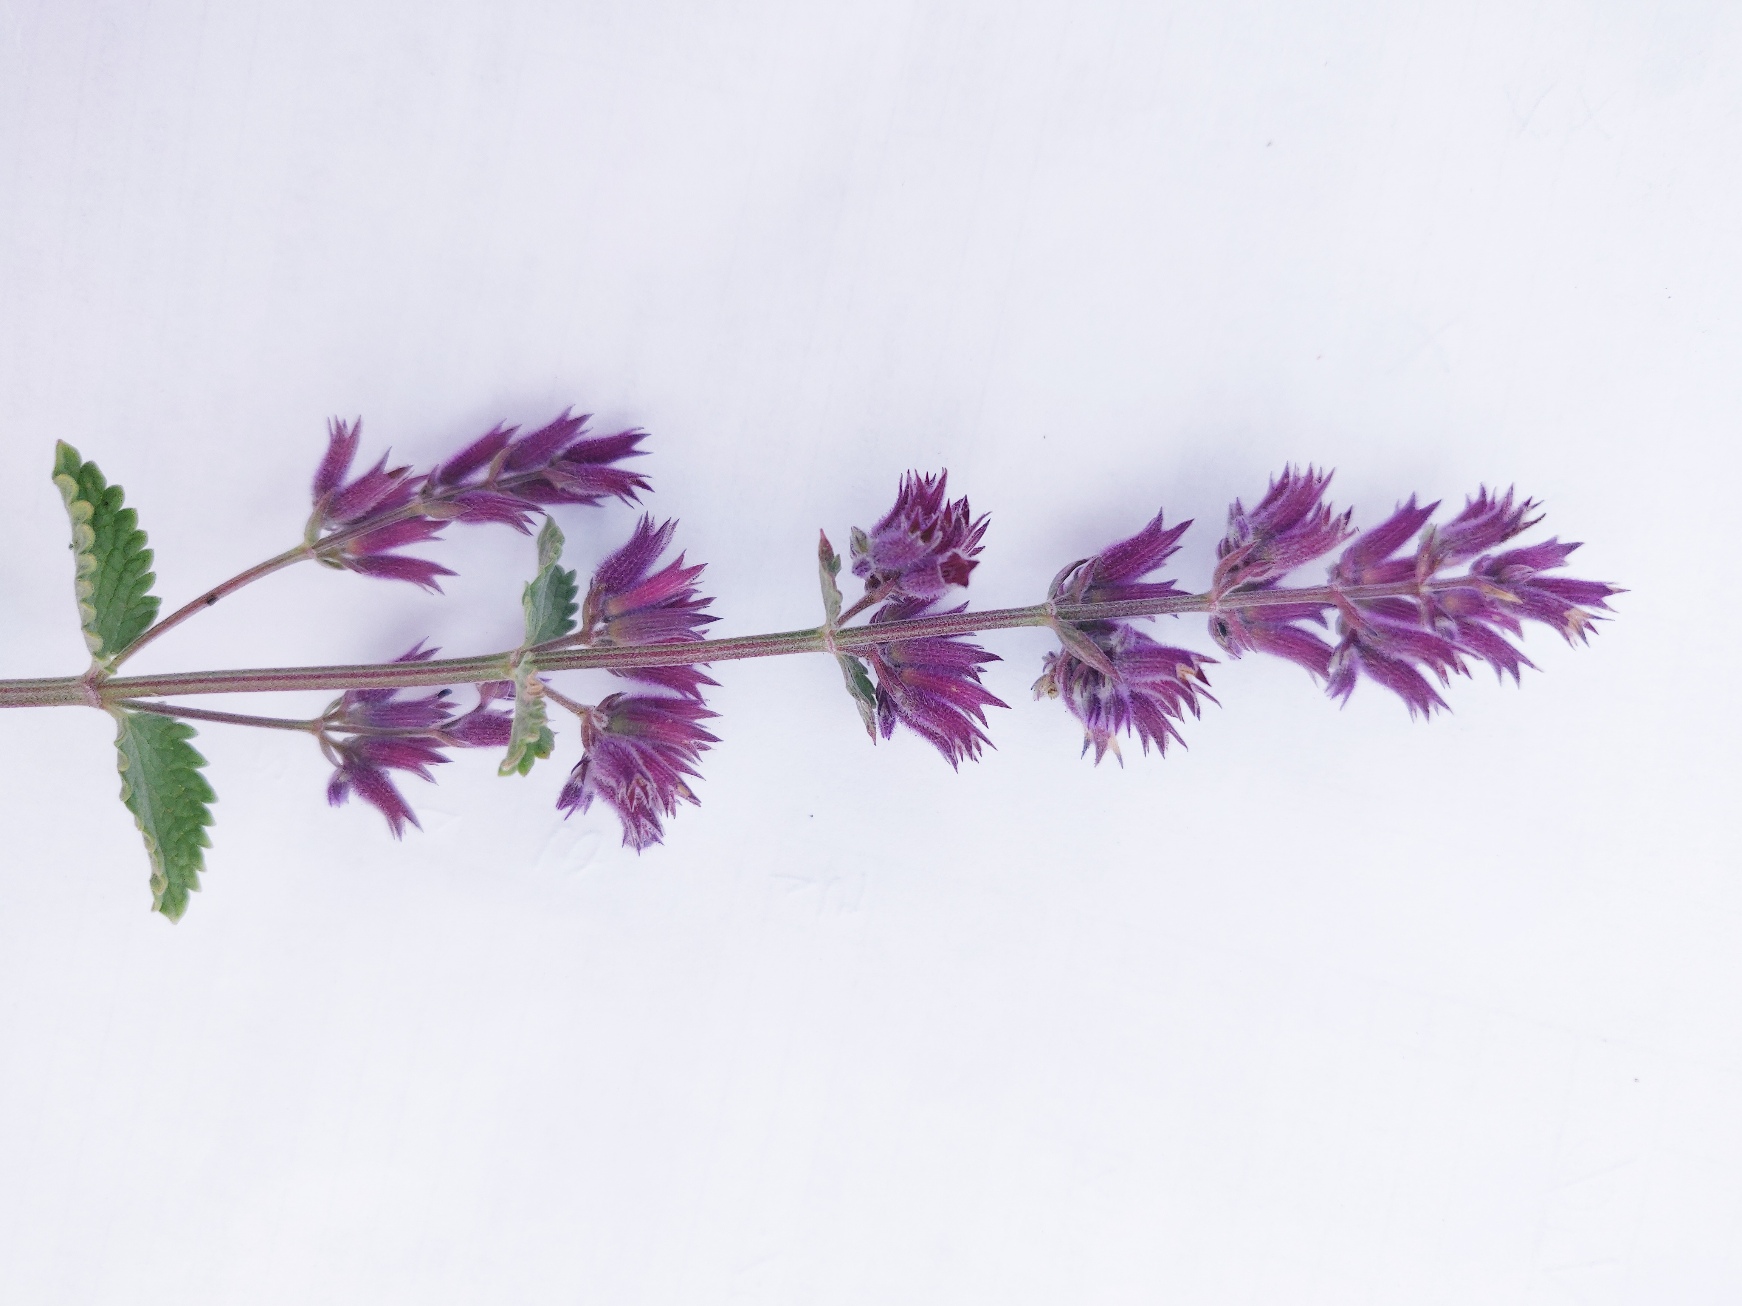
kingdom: Plantae
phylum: Tracheophyta
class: Magnoliopsida
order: Lamiales
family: Lamiaceae
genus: Nepeta
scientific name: Nepeta faassenii
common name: Almindelig blåkant
